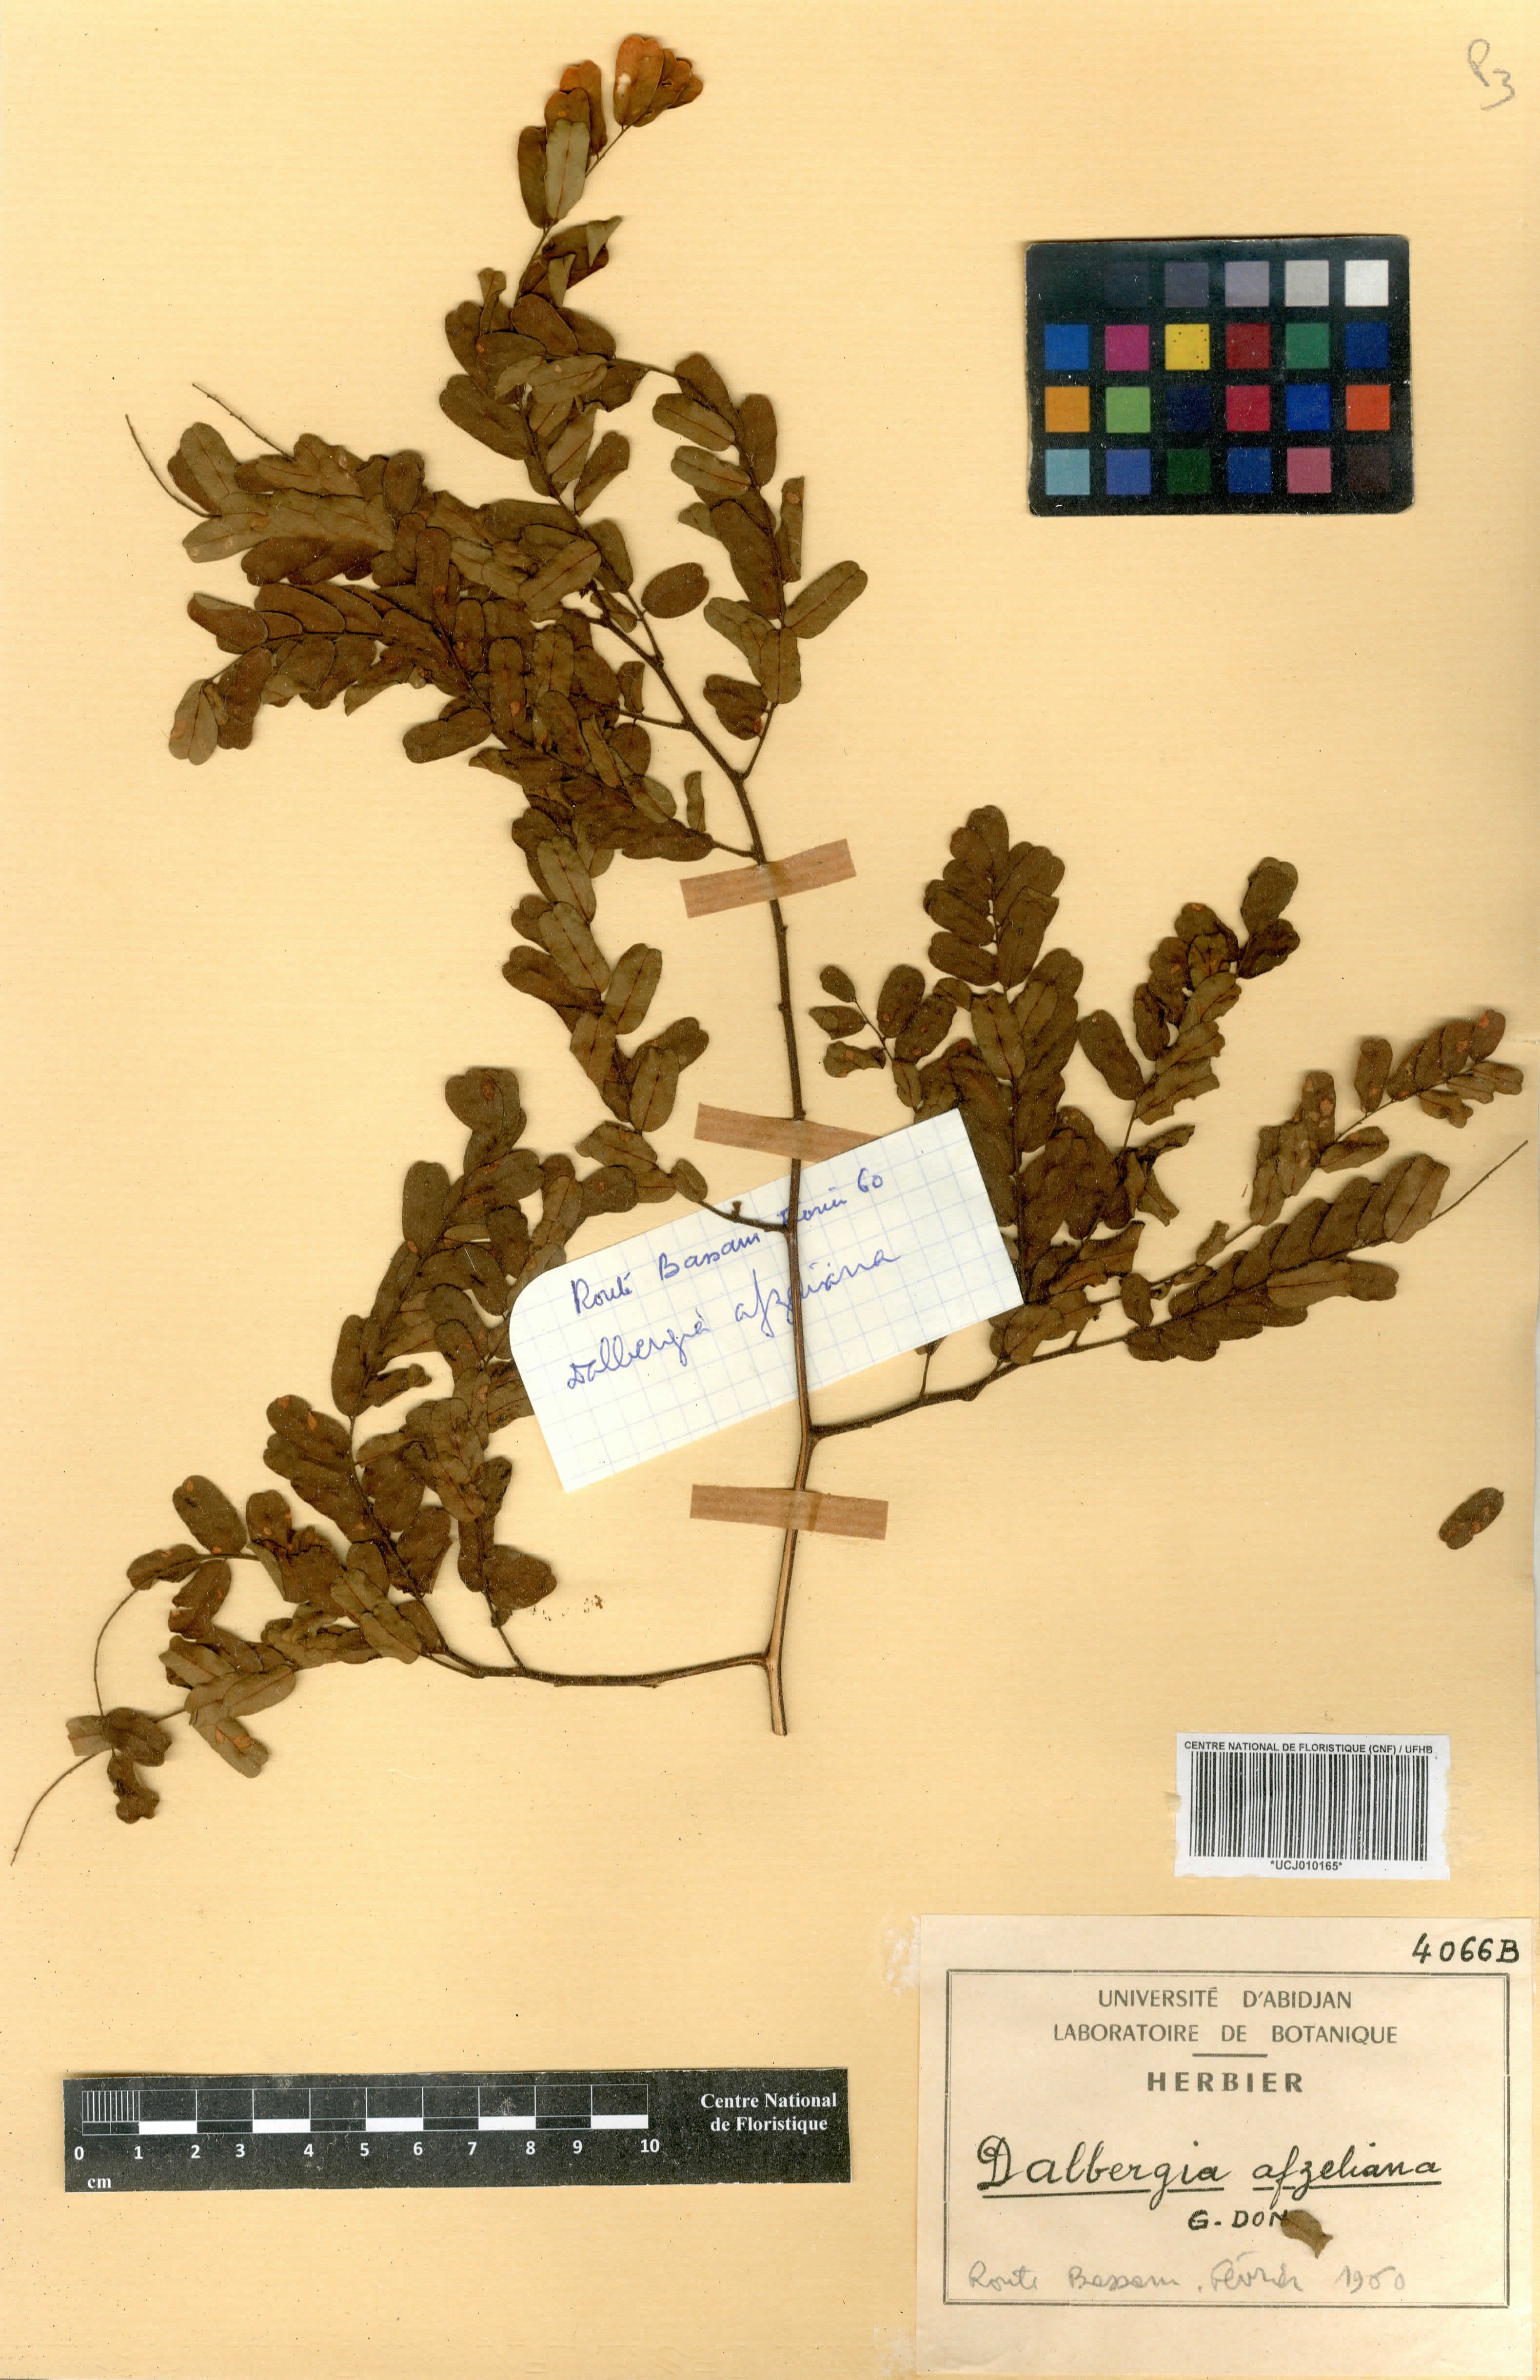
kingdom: Plantae
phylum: Tracheophyta
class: Magnoliopsida
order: Fabales
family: Fabaceae
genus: Dalbergia
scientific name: Dalbergia afzeliana
